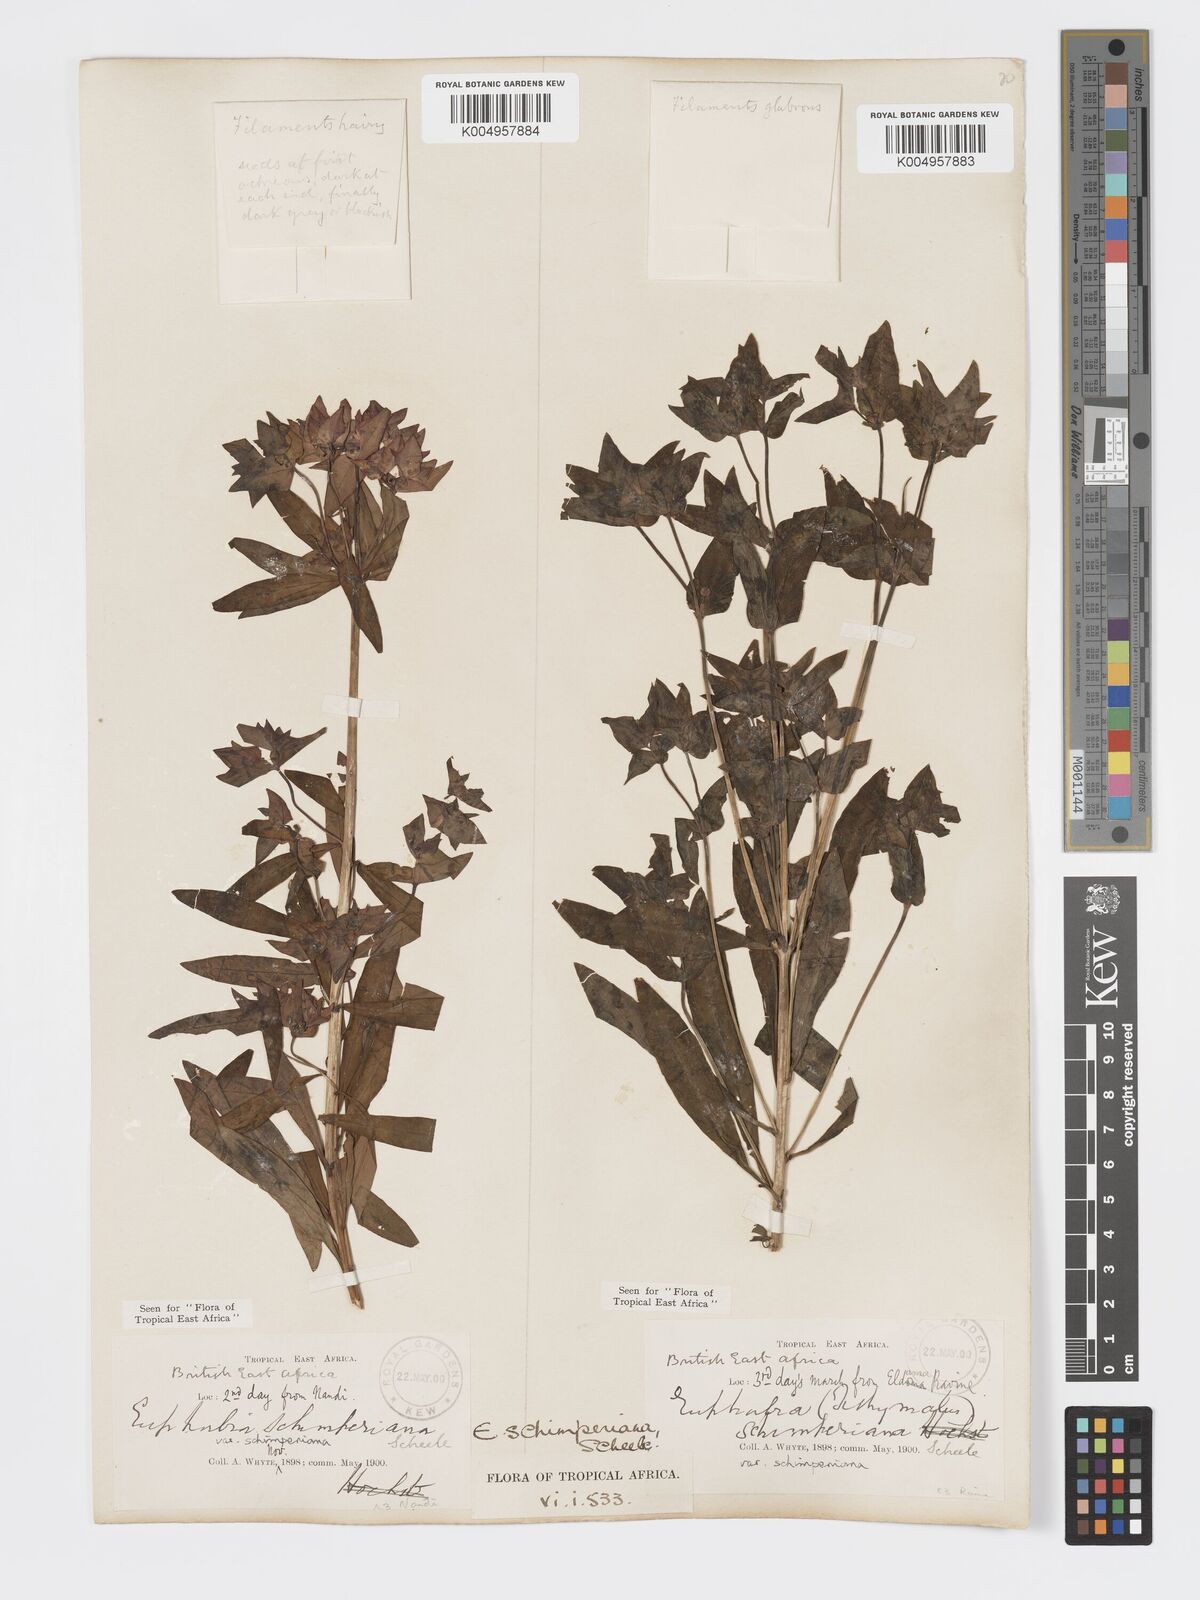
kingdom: Plantae
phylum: Tracheophyta
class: Magnoliopsida
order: Malpighiales
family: Euphorbiaceae
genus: Euphorbia
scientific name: Euphorbia schimperiana
